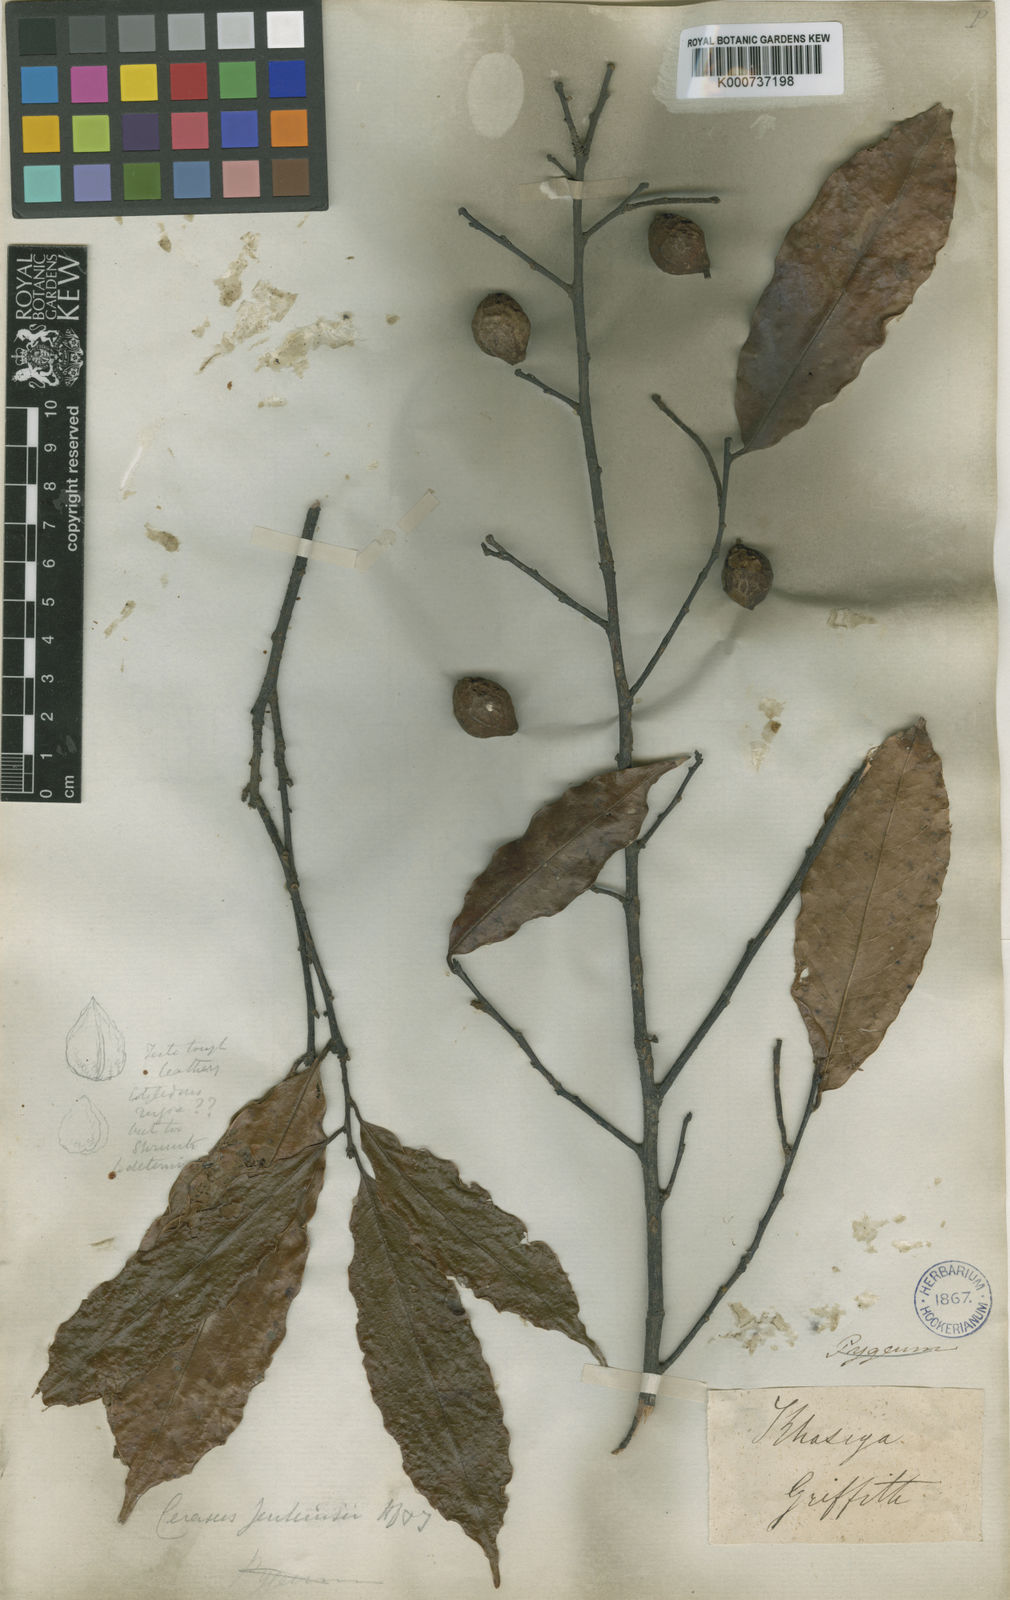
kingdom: Plantae
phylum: Tracheophyta
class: Magnoliopsida
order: Rosales
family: Rosaceae
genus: Prunus
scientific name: Prunus jenkinsii
